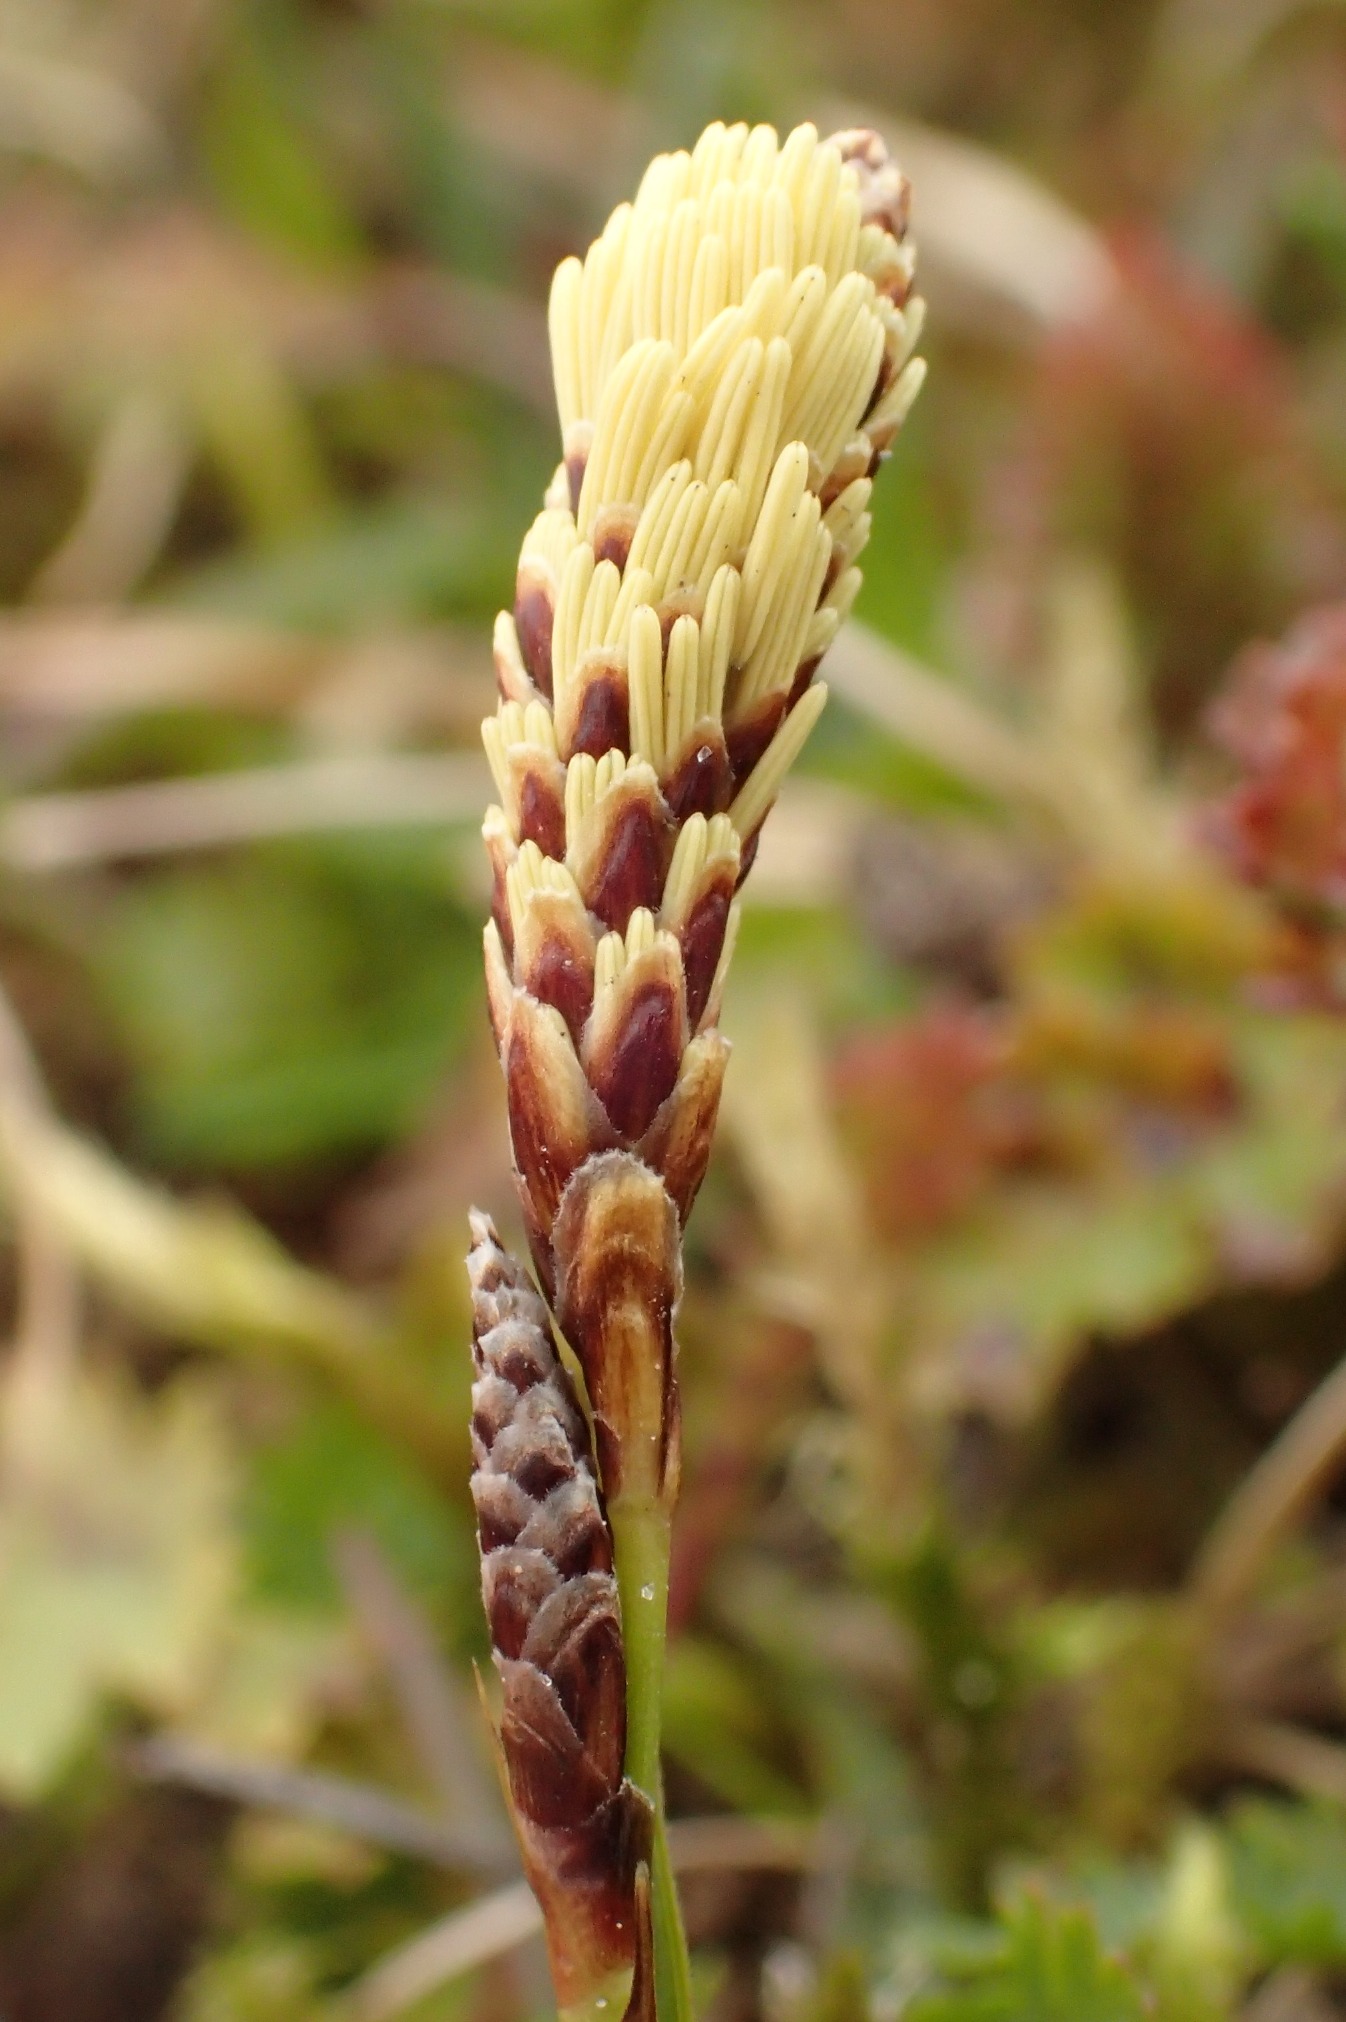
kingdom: Plantae
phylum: Tracheophyta
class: Liliopsida
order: Poales
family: Cyperaceae
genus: Carex
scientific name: Carex ericetorum
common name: Lyng-star
